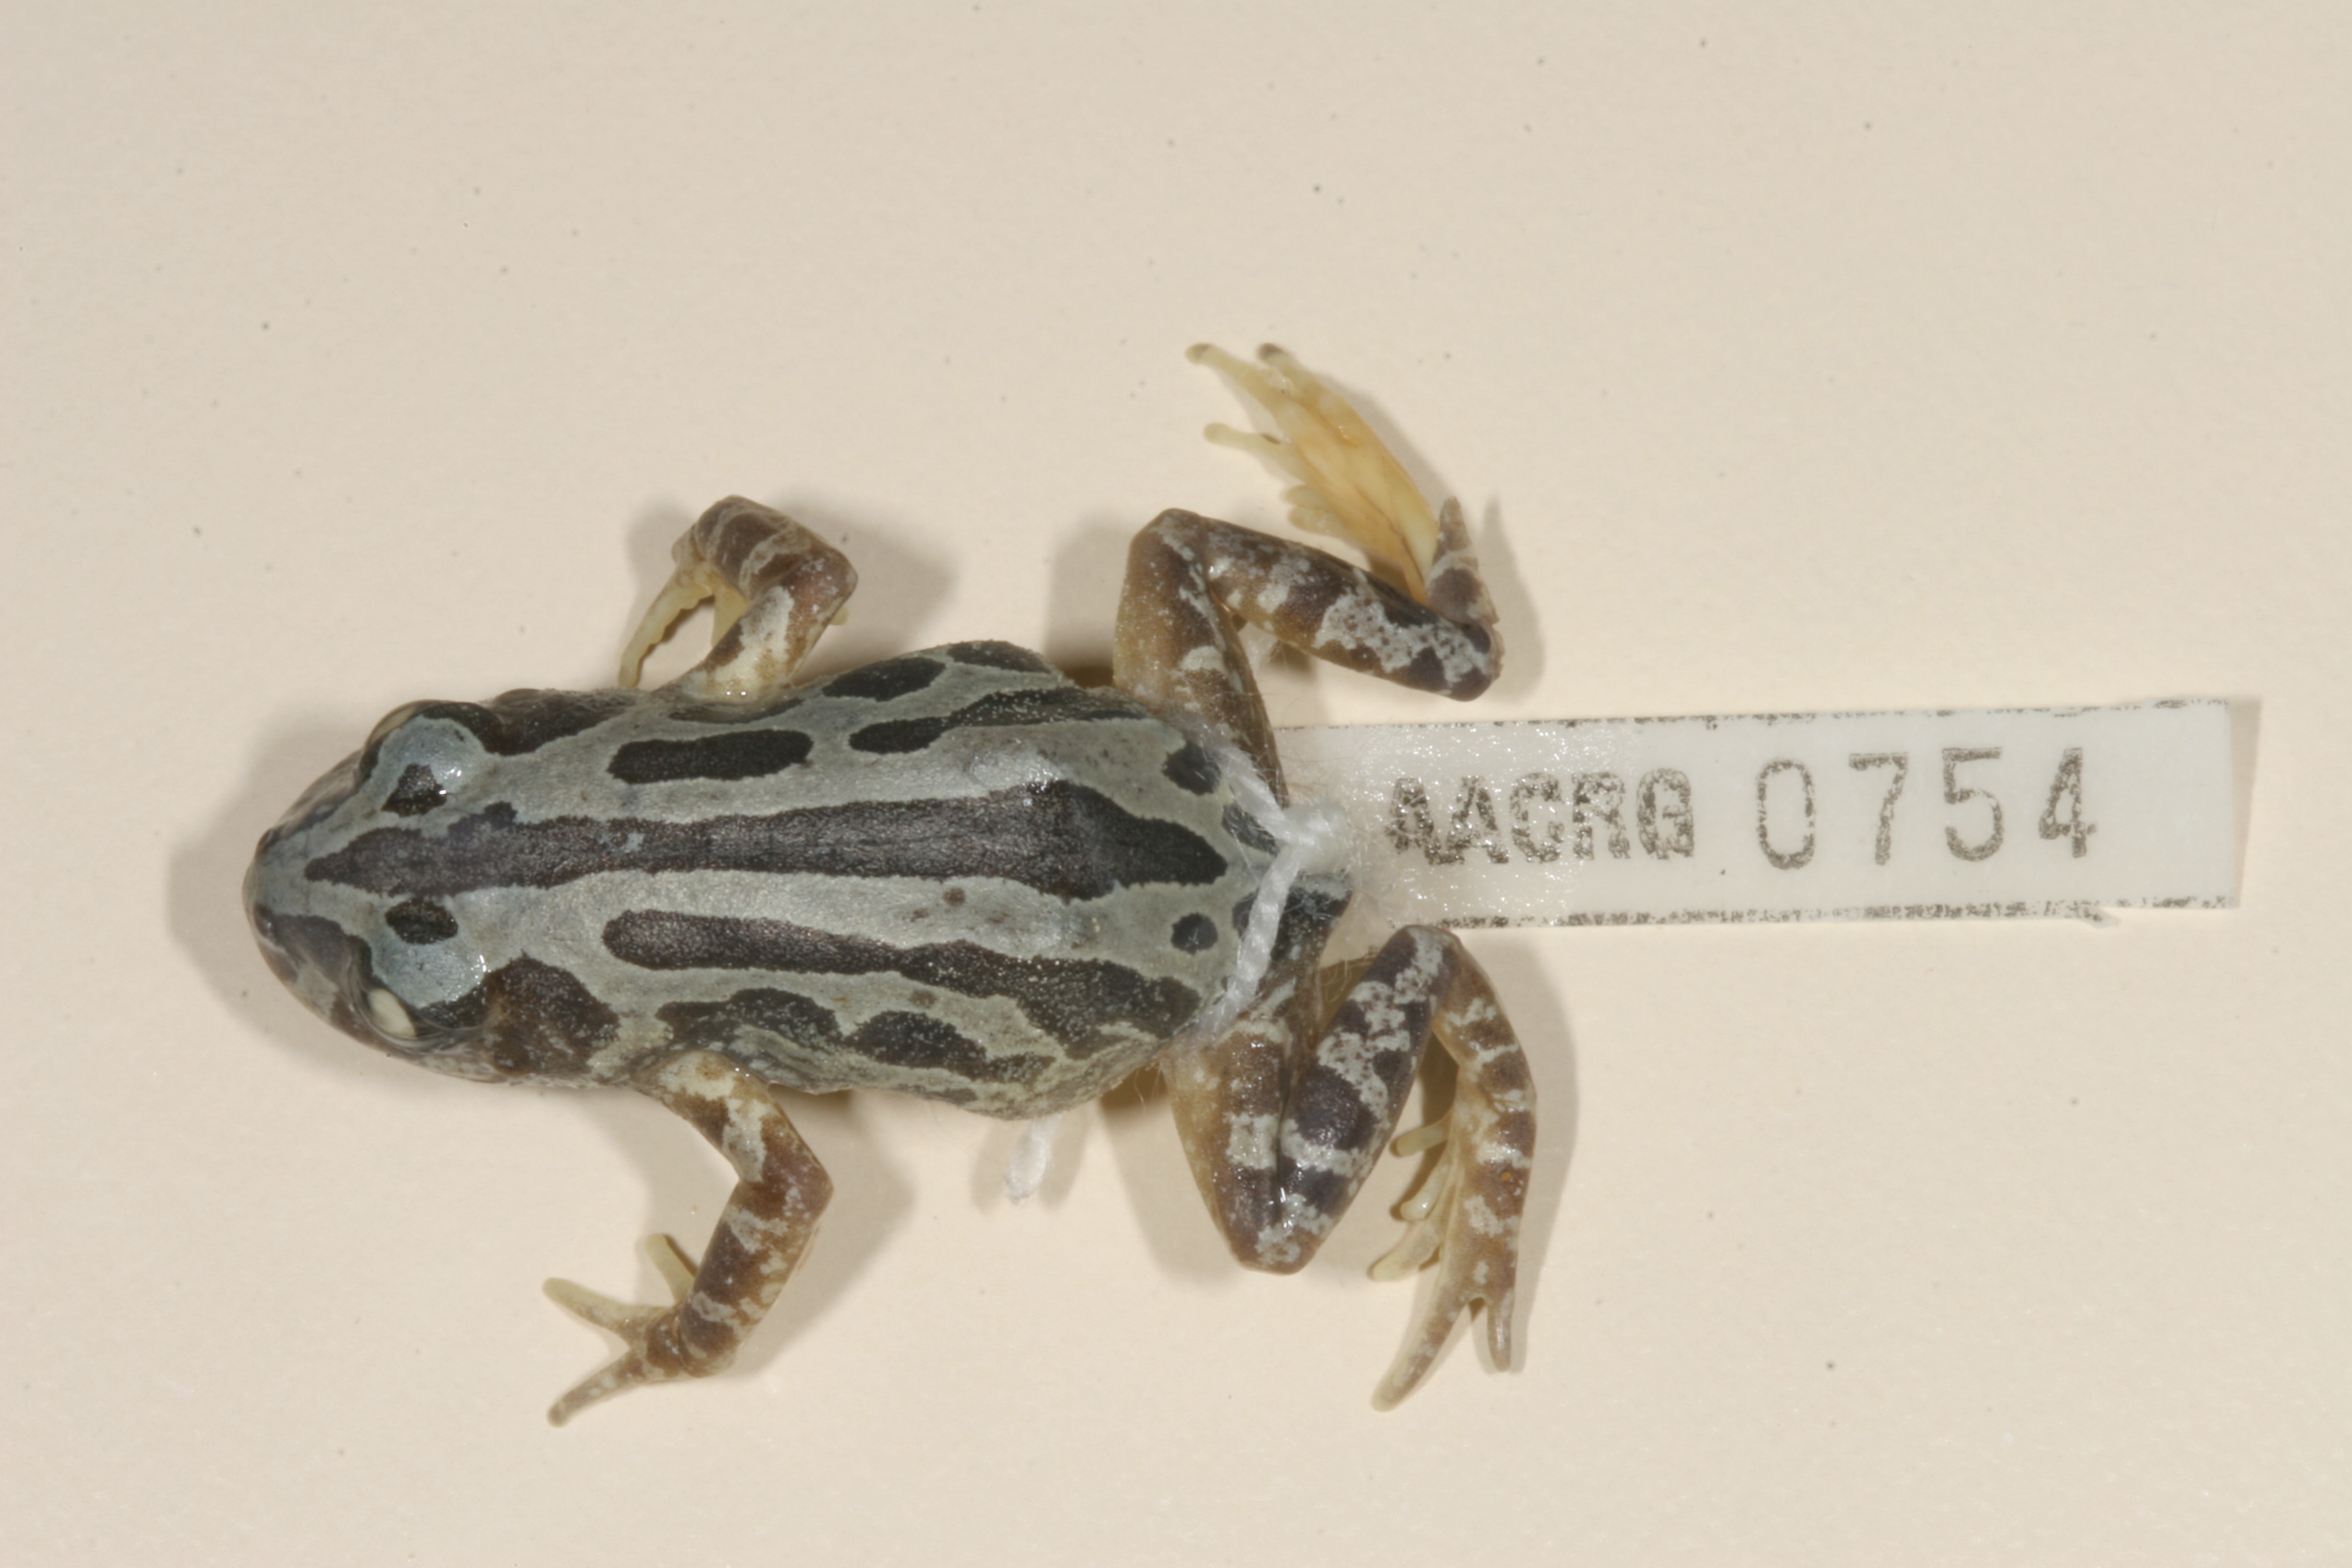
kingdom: Animalia
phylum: Chordata
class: Amphibia
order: Anura
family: Hyperoliidae
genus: Kassina
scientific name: Kassina senegalensis
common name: Senegal land frog
